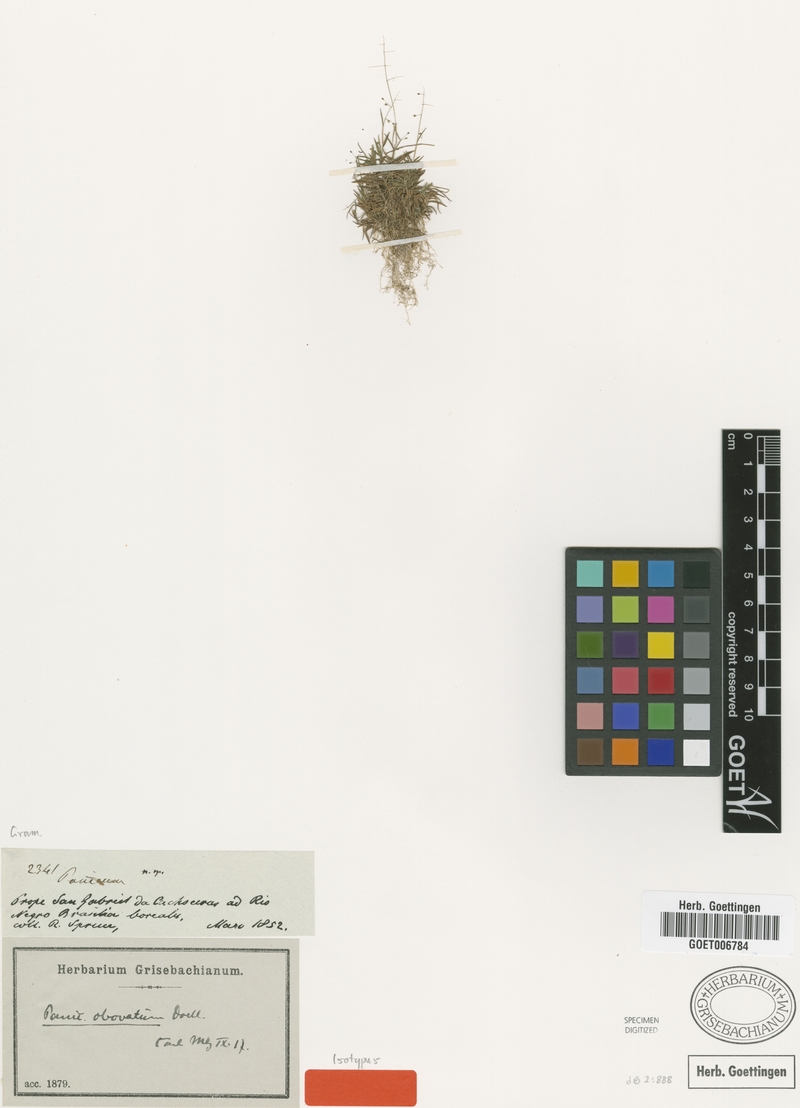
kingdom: Plantae
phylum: Tracheophyta
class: Liliopsida
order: Poales
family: Poaceae
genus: Trichanthecium
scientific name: Trichanthecium polycomum
